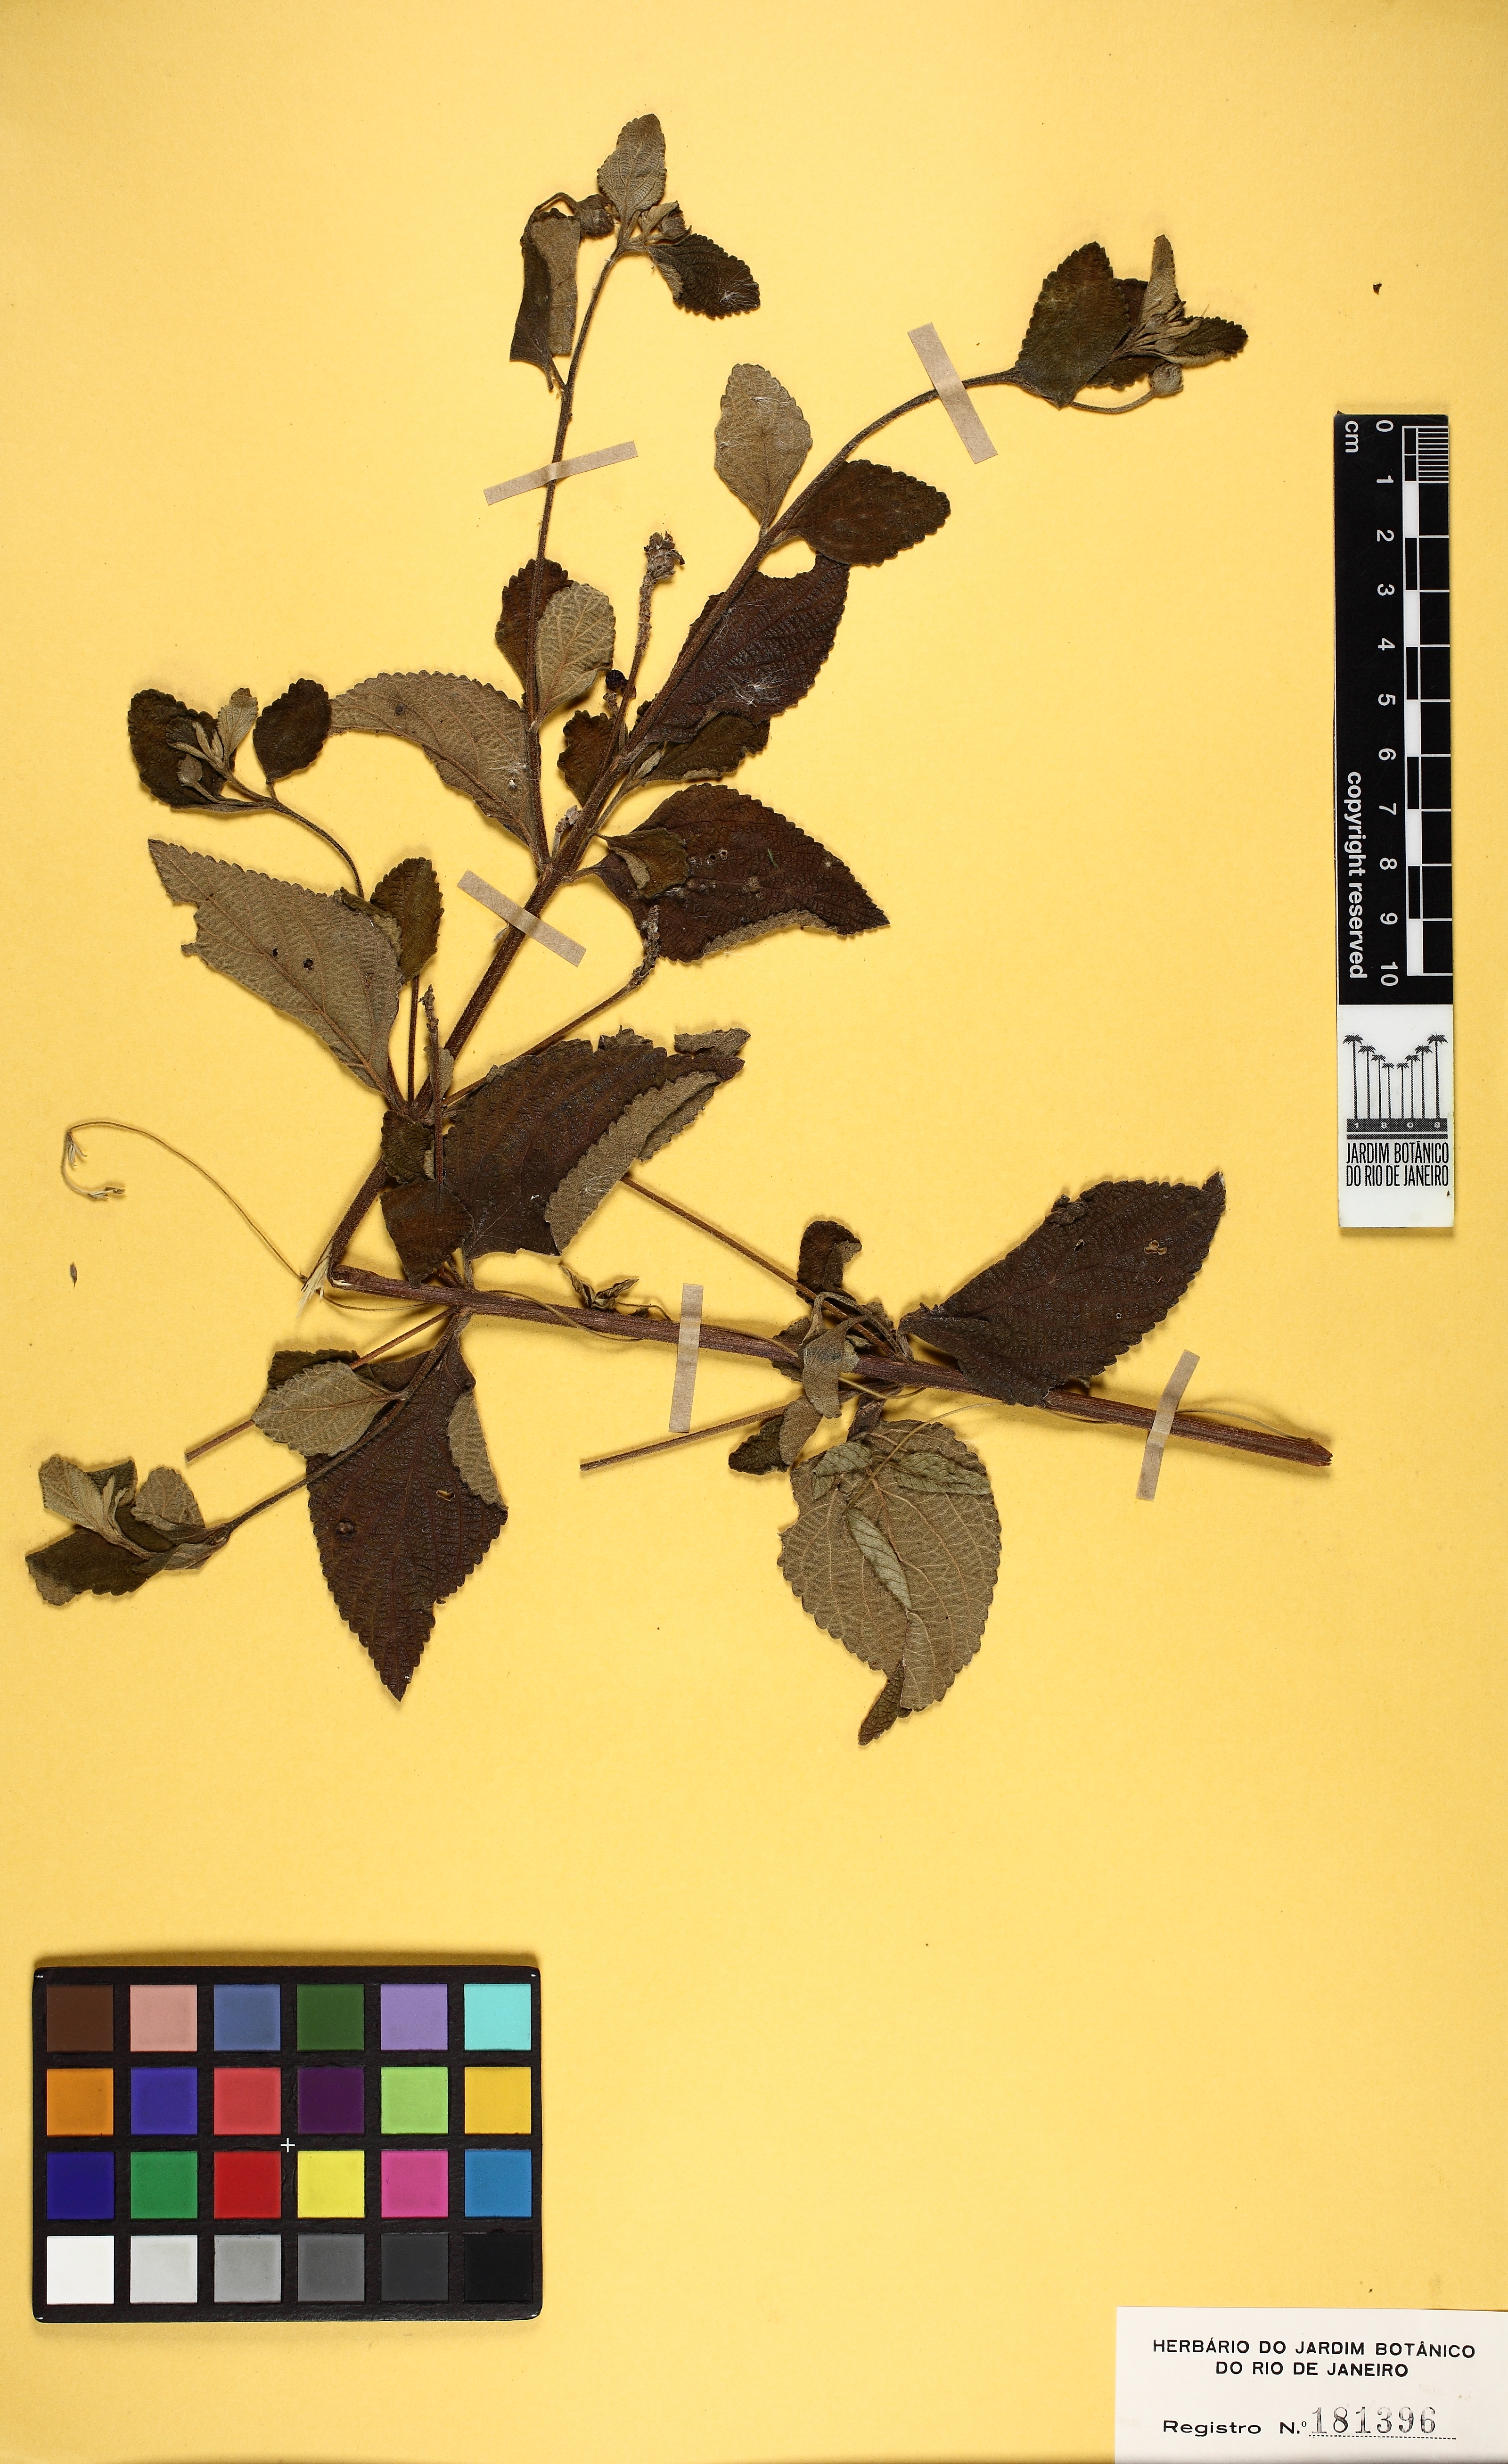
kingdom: Plantae
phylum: Tracheophyta
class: Magnoliopsida
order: Lamiales
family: Verbenaceae
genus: Lantana
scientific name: Lantana trifolia
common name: Sweet-sage
